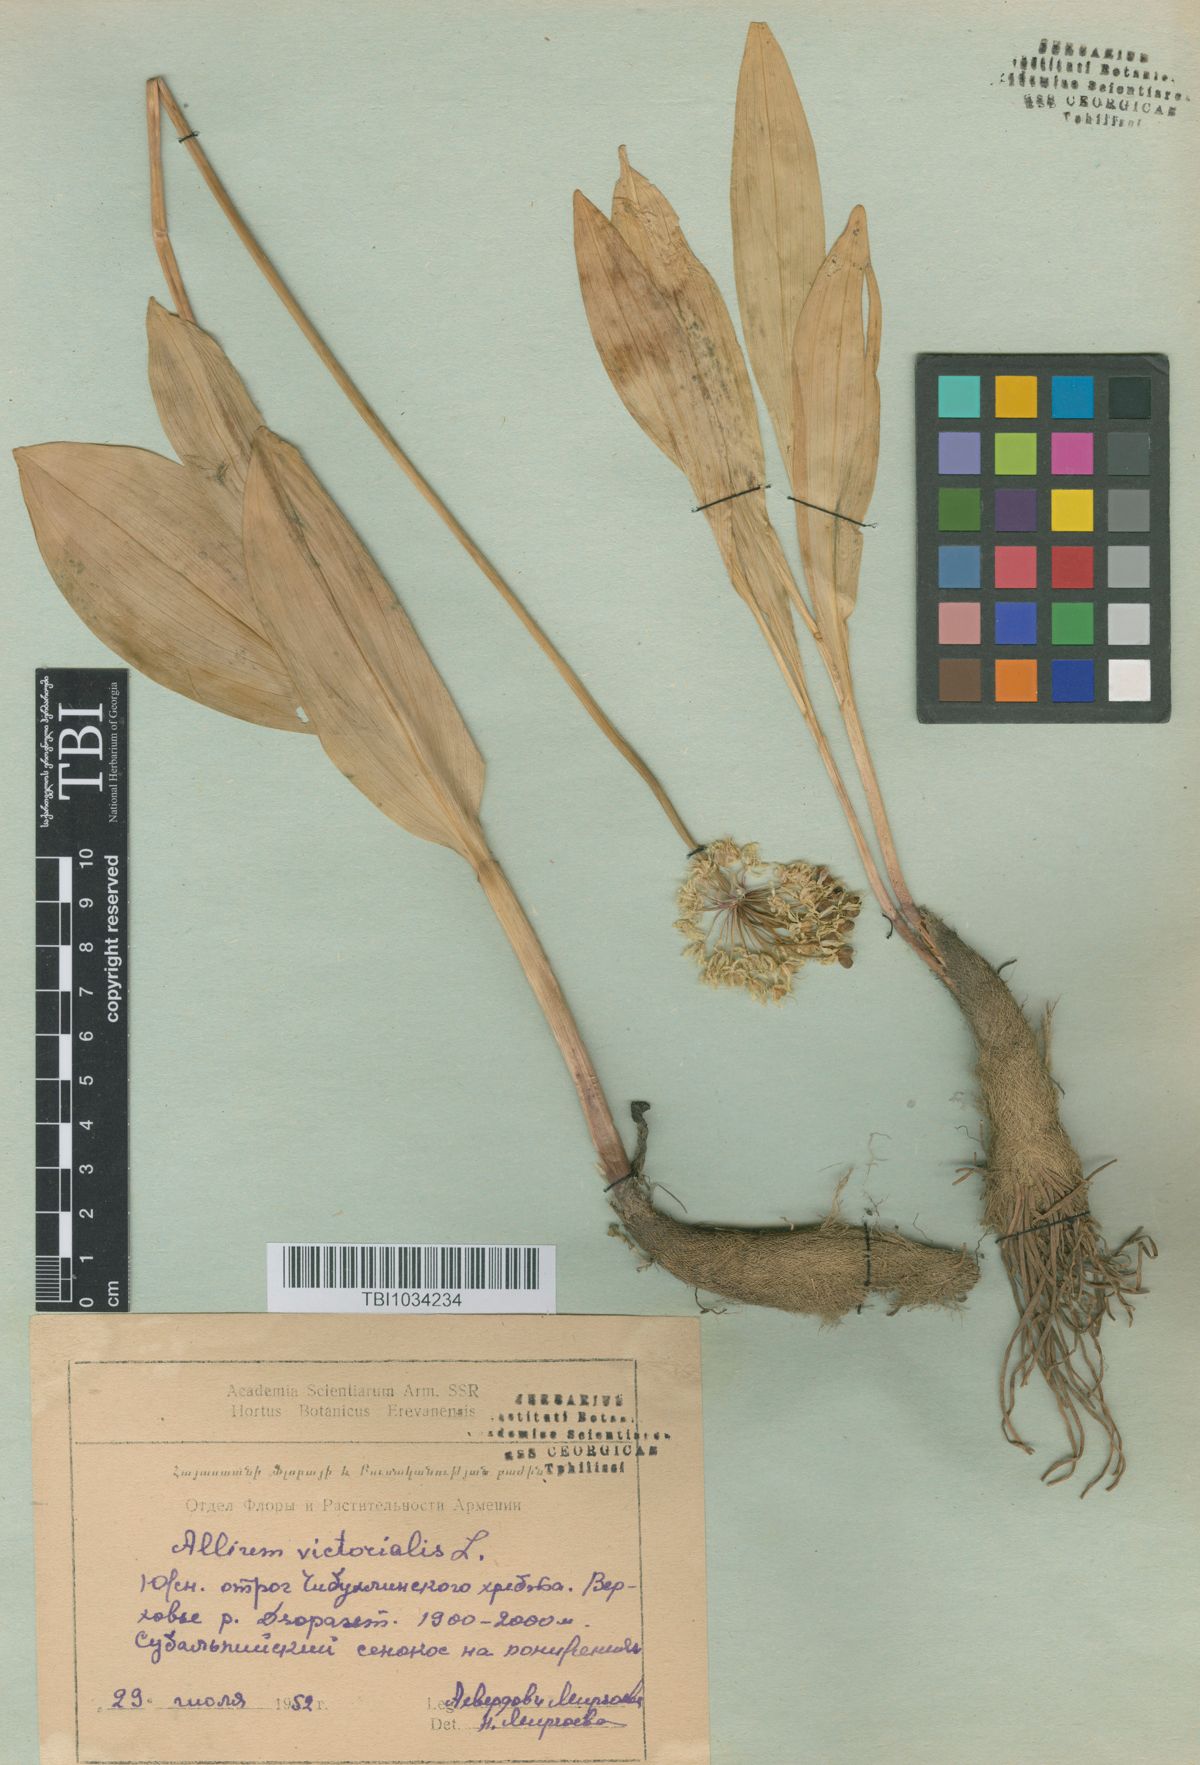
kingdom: Plantae
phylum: Tracheophyta
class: Liliopsida
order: Asparagales
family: Amaryllidaceae
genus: Allium
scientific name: Allium victorialis
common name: Alpine leek
